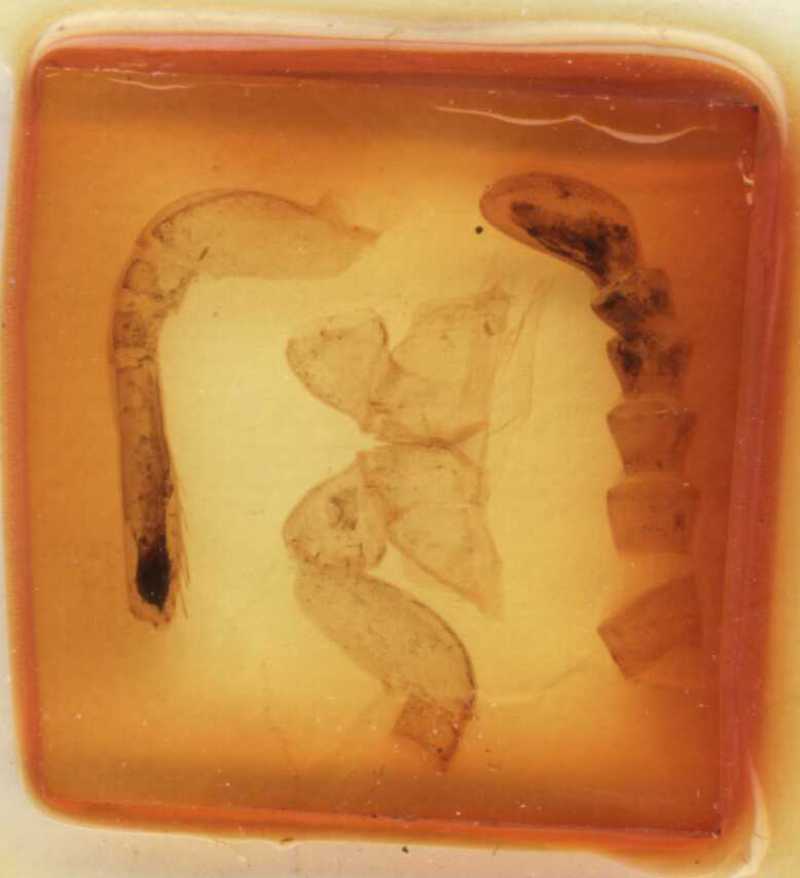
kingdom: Animalia
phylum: Arthropoda
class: Diplopoda
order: Sphaerotheriida
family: Zephroniidae
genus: Sphaeropoeus
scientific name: Sphaeropoeus gisleni
